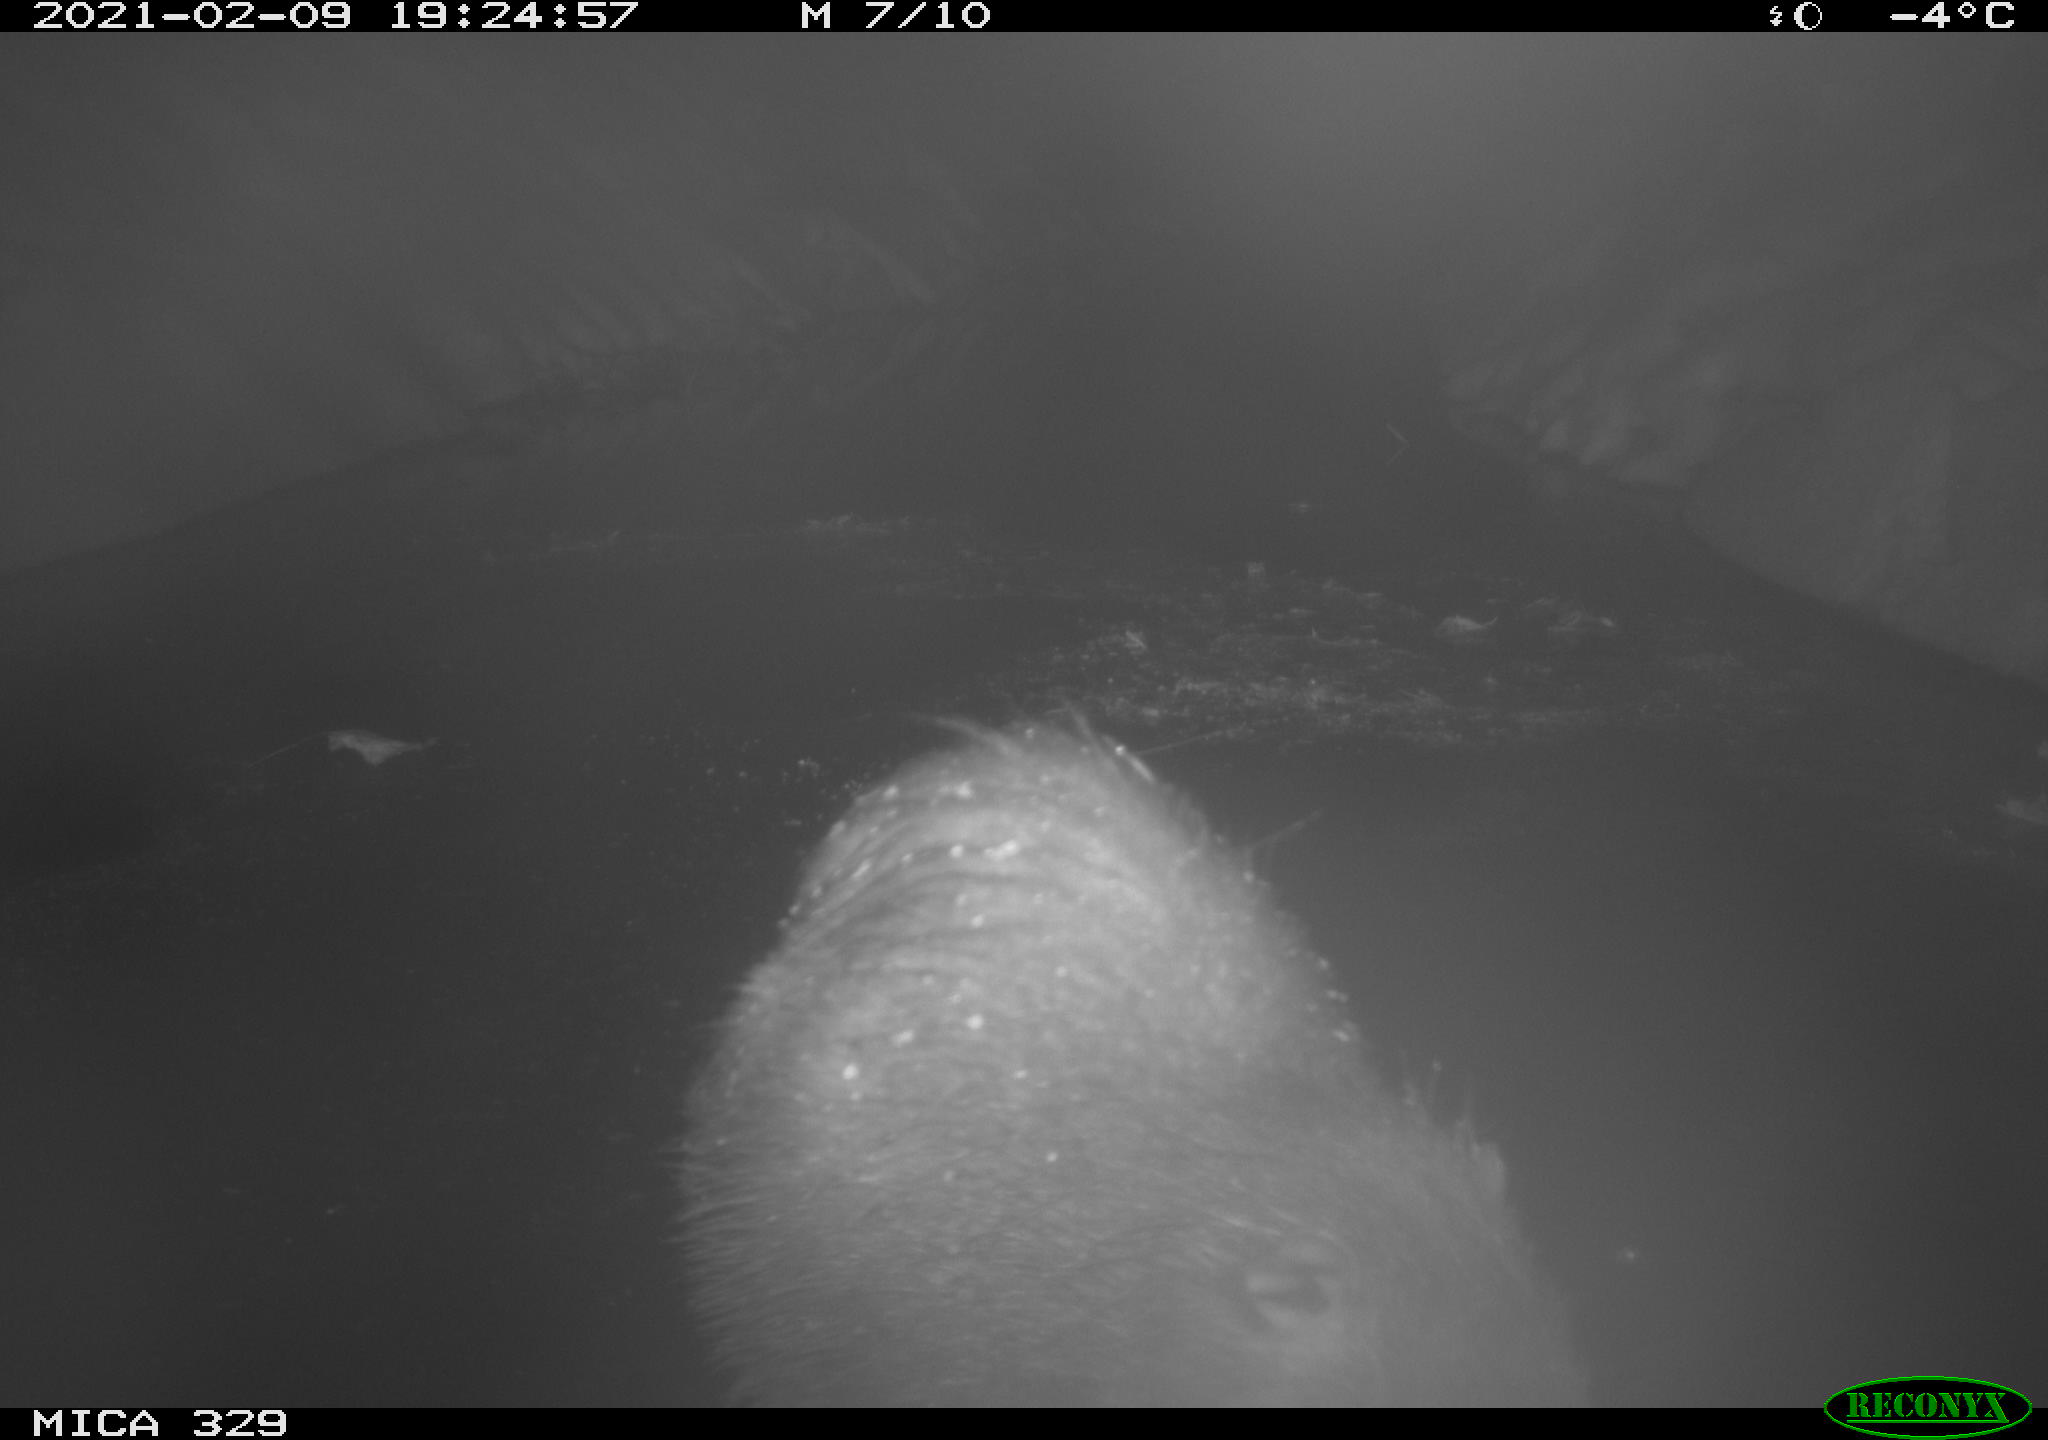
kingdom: Animalia
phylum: Chordata
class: Mammalia
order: Rodentia
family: Myocastoridae
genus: Myocastor
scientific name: Myocastor coypus
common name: Coypu
